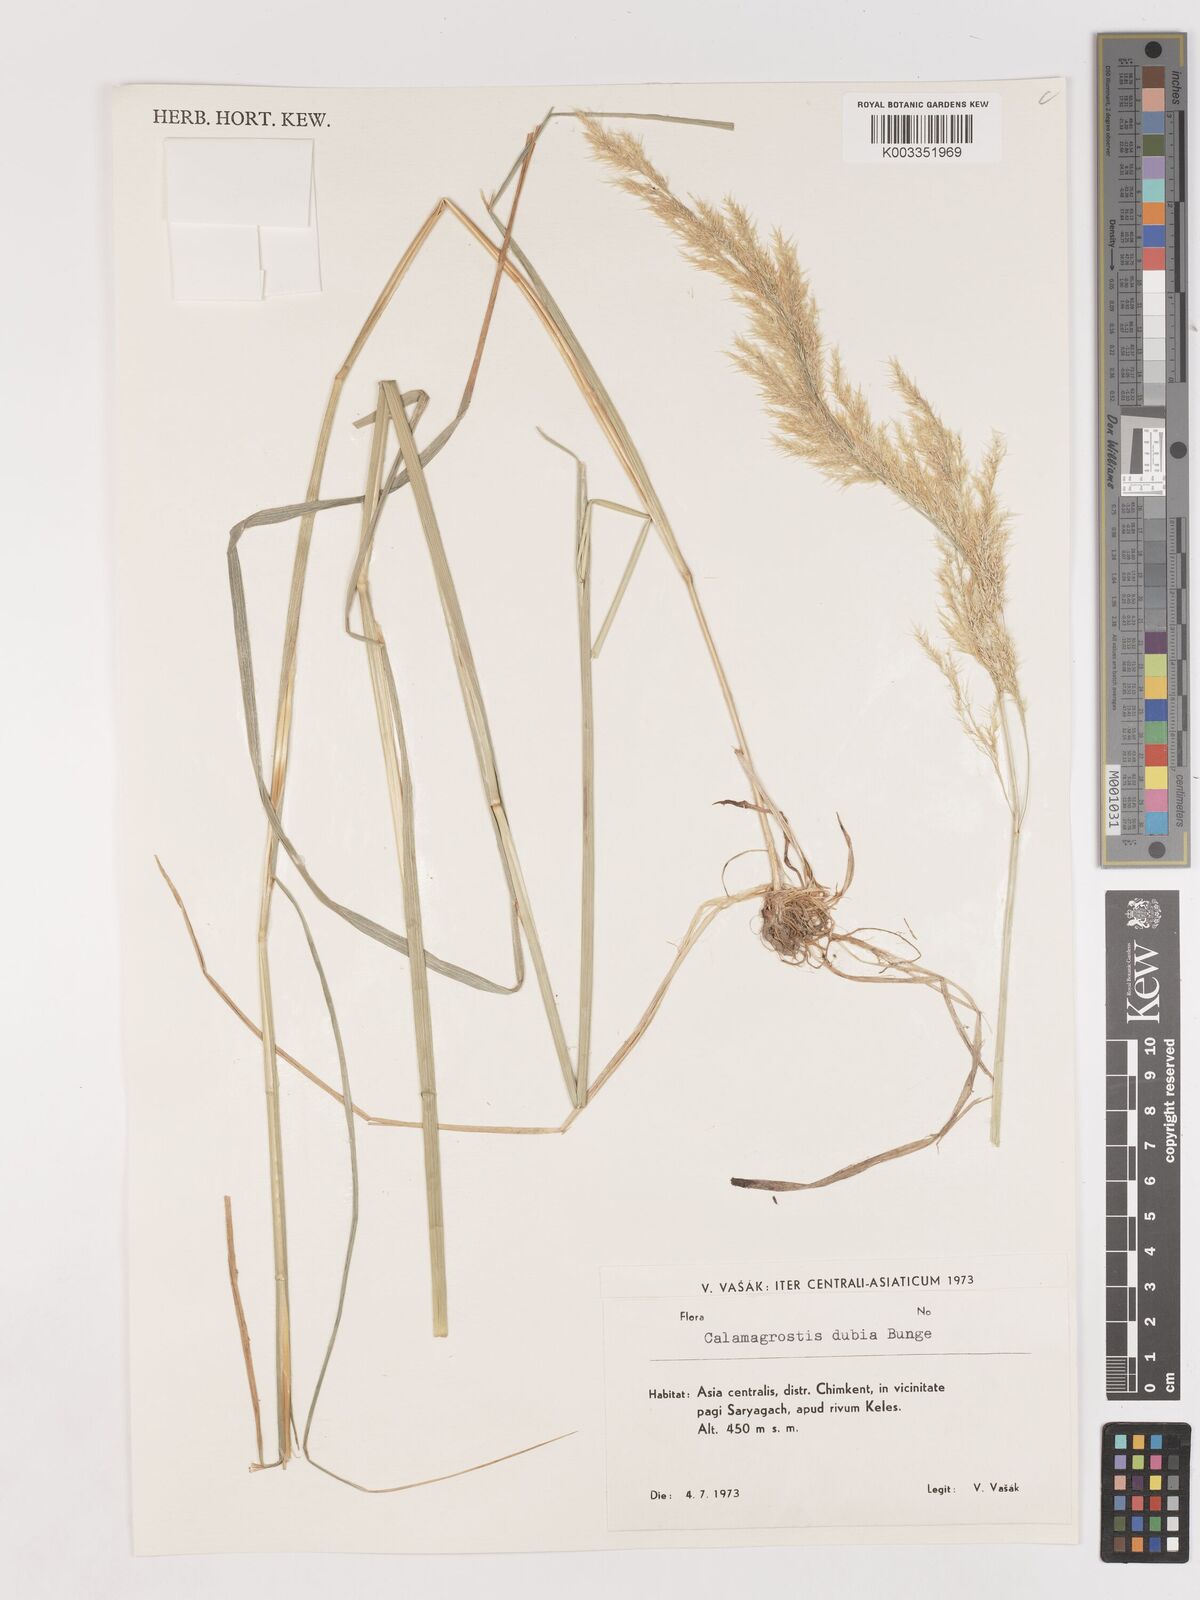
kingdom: Plantae
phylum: Tracheophyta
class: Liliopsida
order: Poales
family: Poaceae
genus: Calamagrostis
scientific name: Calamagrostis pseudophragmites
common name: Coastal small-reed
